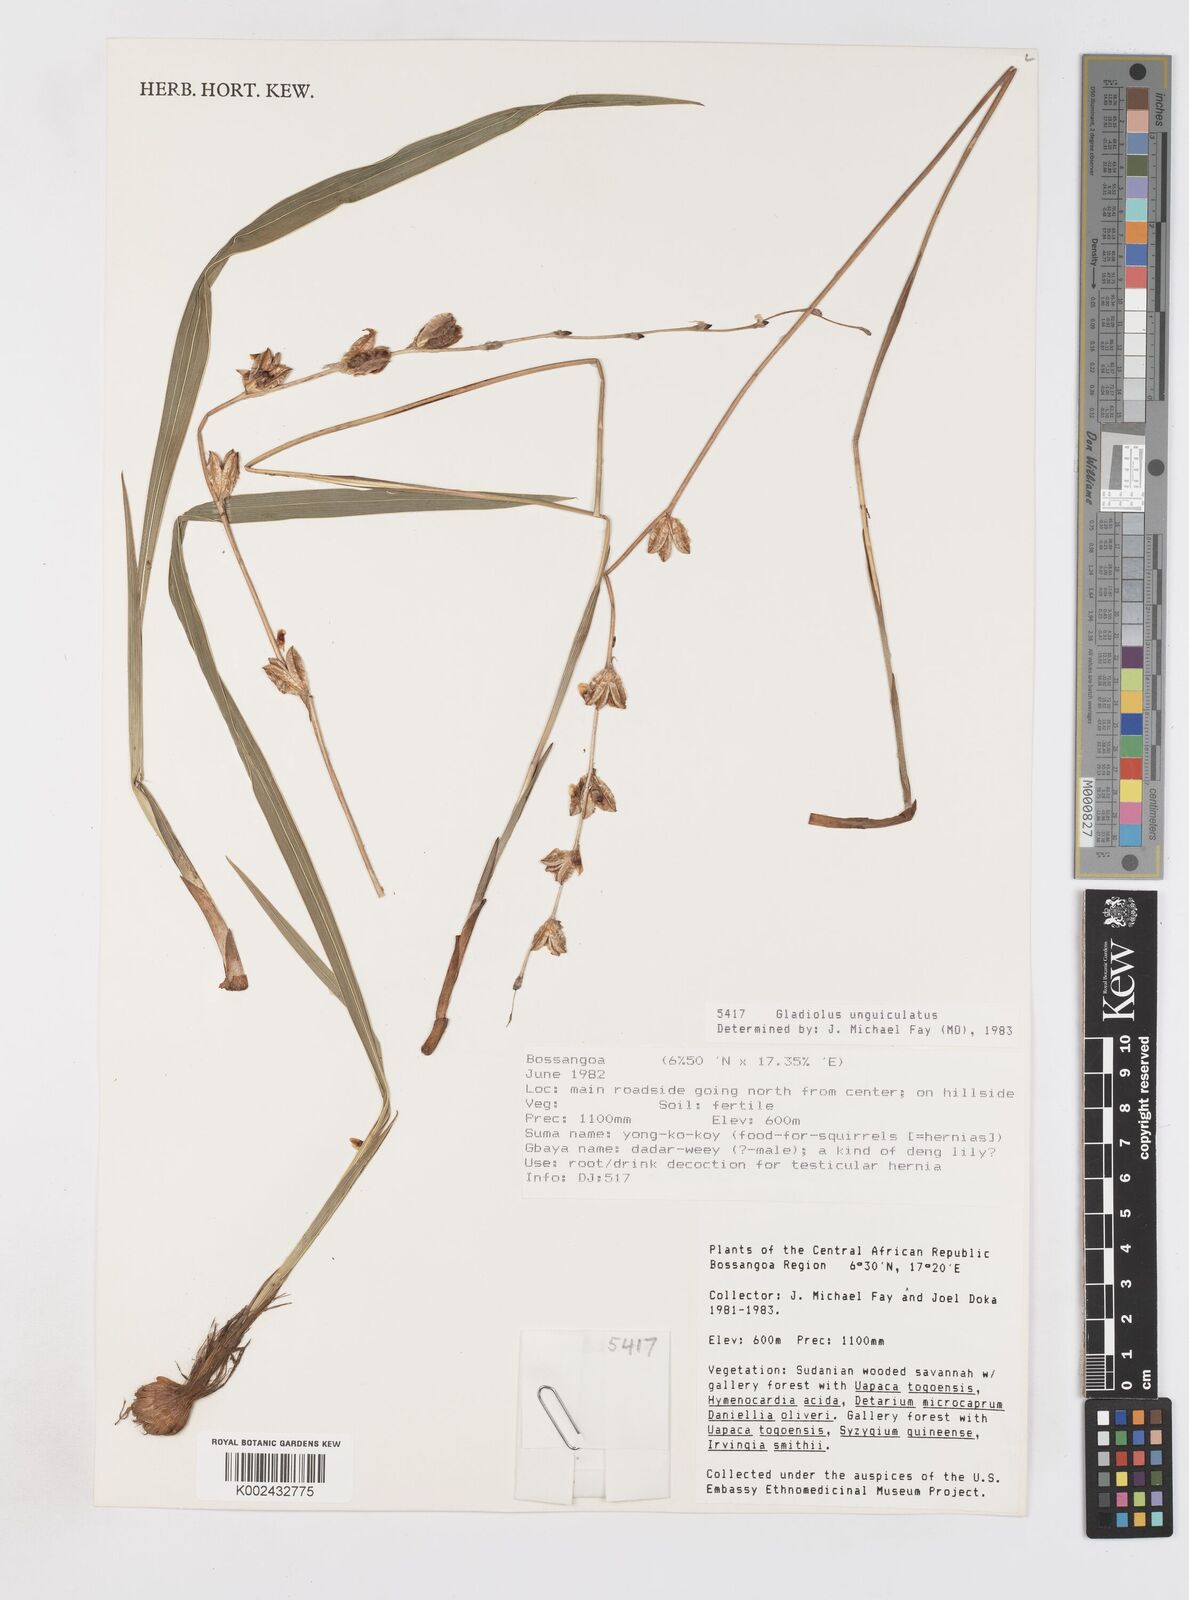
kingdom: Plantae
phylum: Tracheophyta
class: Liliopsida
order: Asparagales
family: Iridaceae
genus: Gladiolus
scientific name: Gladiolus unguiculatus
